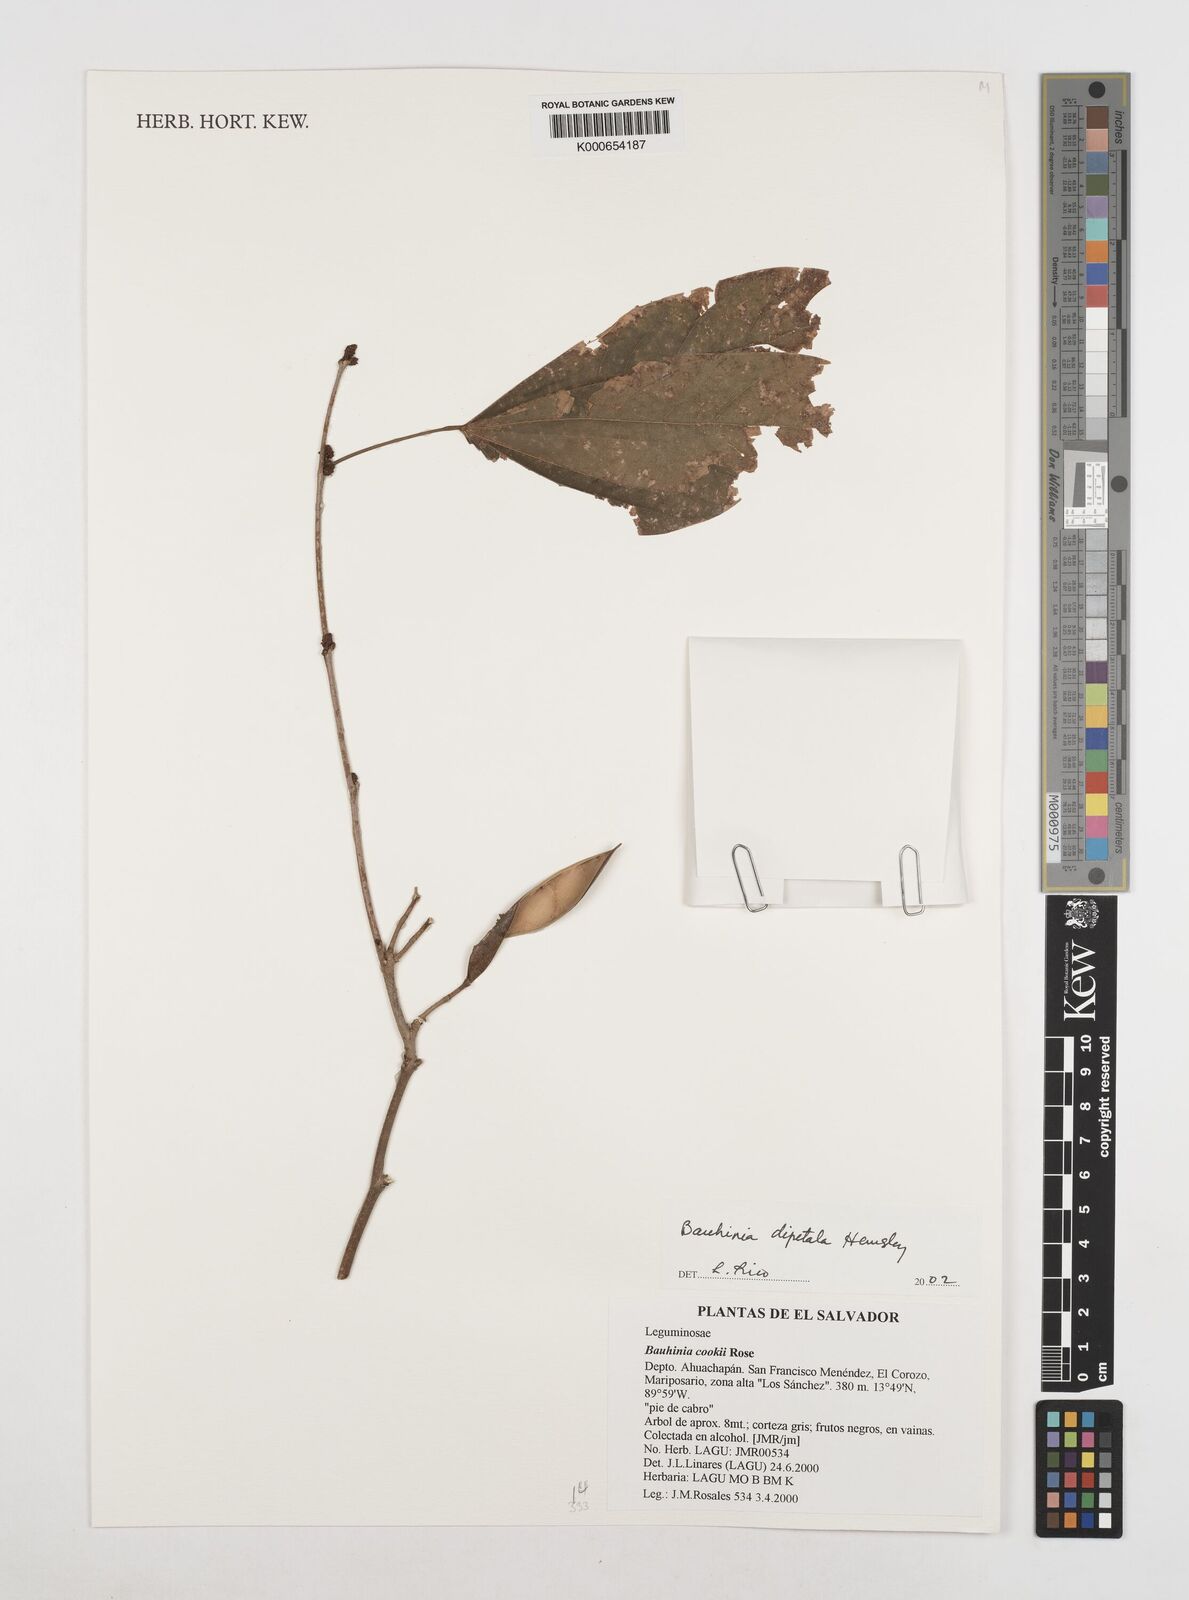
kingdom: Plantae
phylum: Tracheophyta
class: Magnoliopsida
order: Fabales
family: Fabaceae
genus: Bauhinia
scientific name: Bauhinia dipetala
